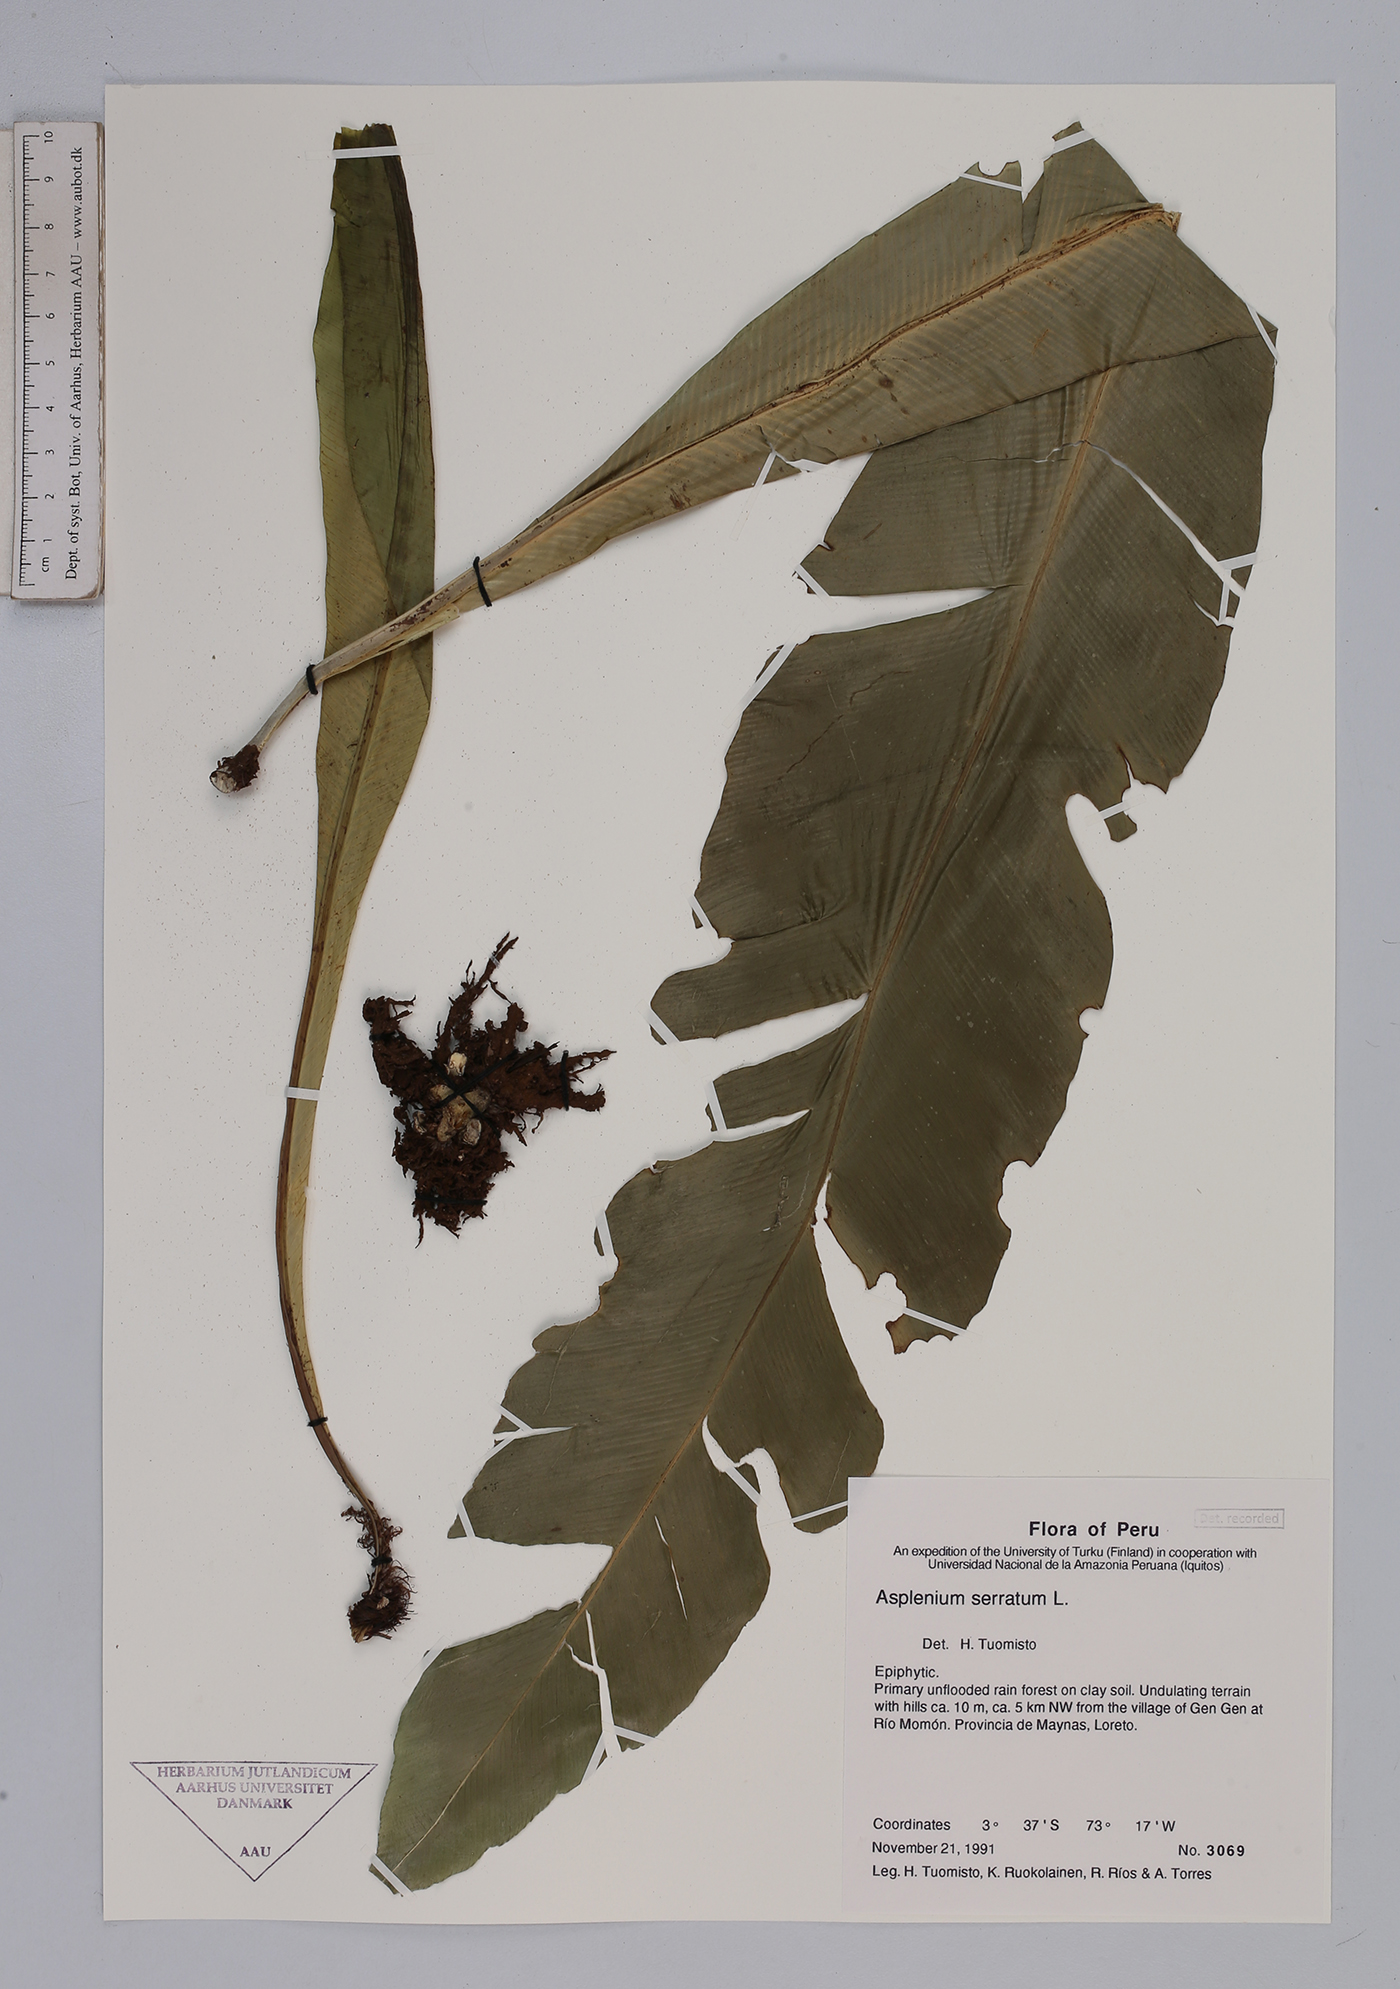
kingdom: Plantae
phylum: Tracheophyta
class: Polypodiopsida
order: Polypodiales
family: Aspleniaceae
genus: Asplenium
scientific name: Asplenium serratum
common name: Wild birdnest fern
